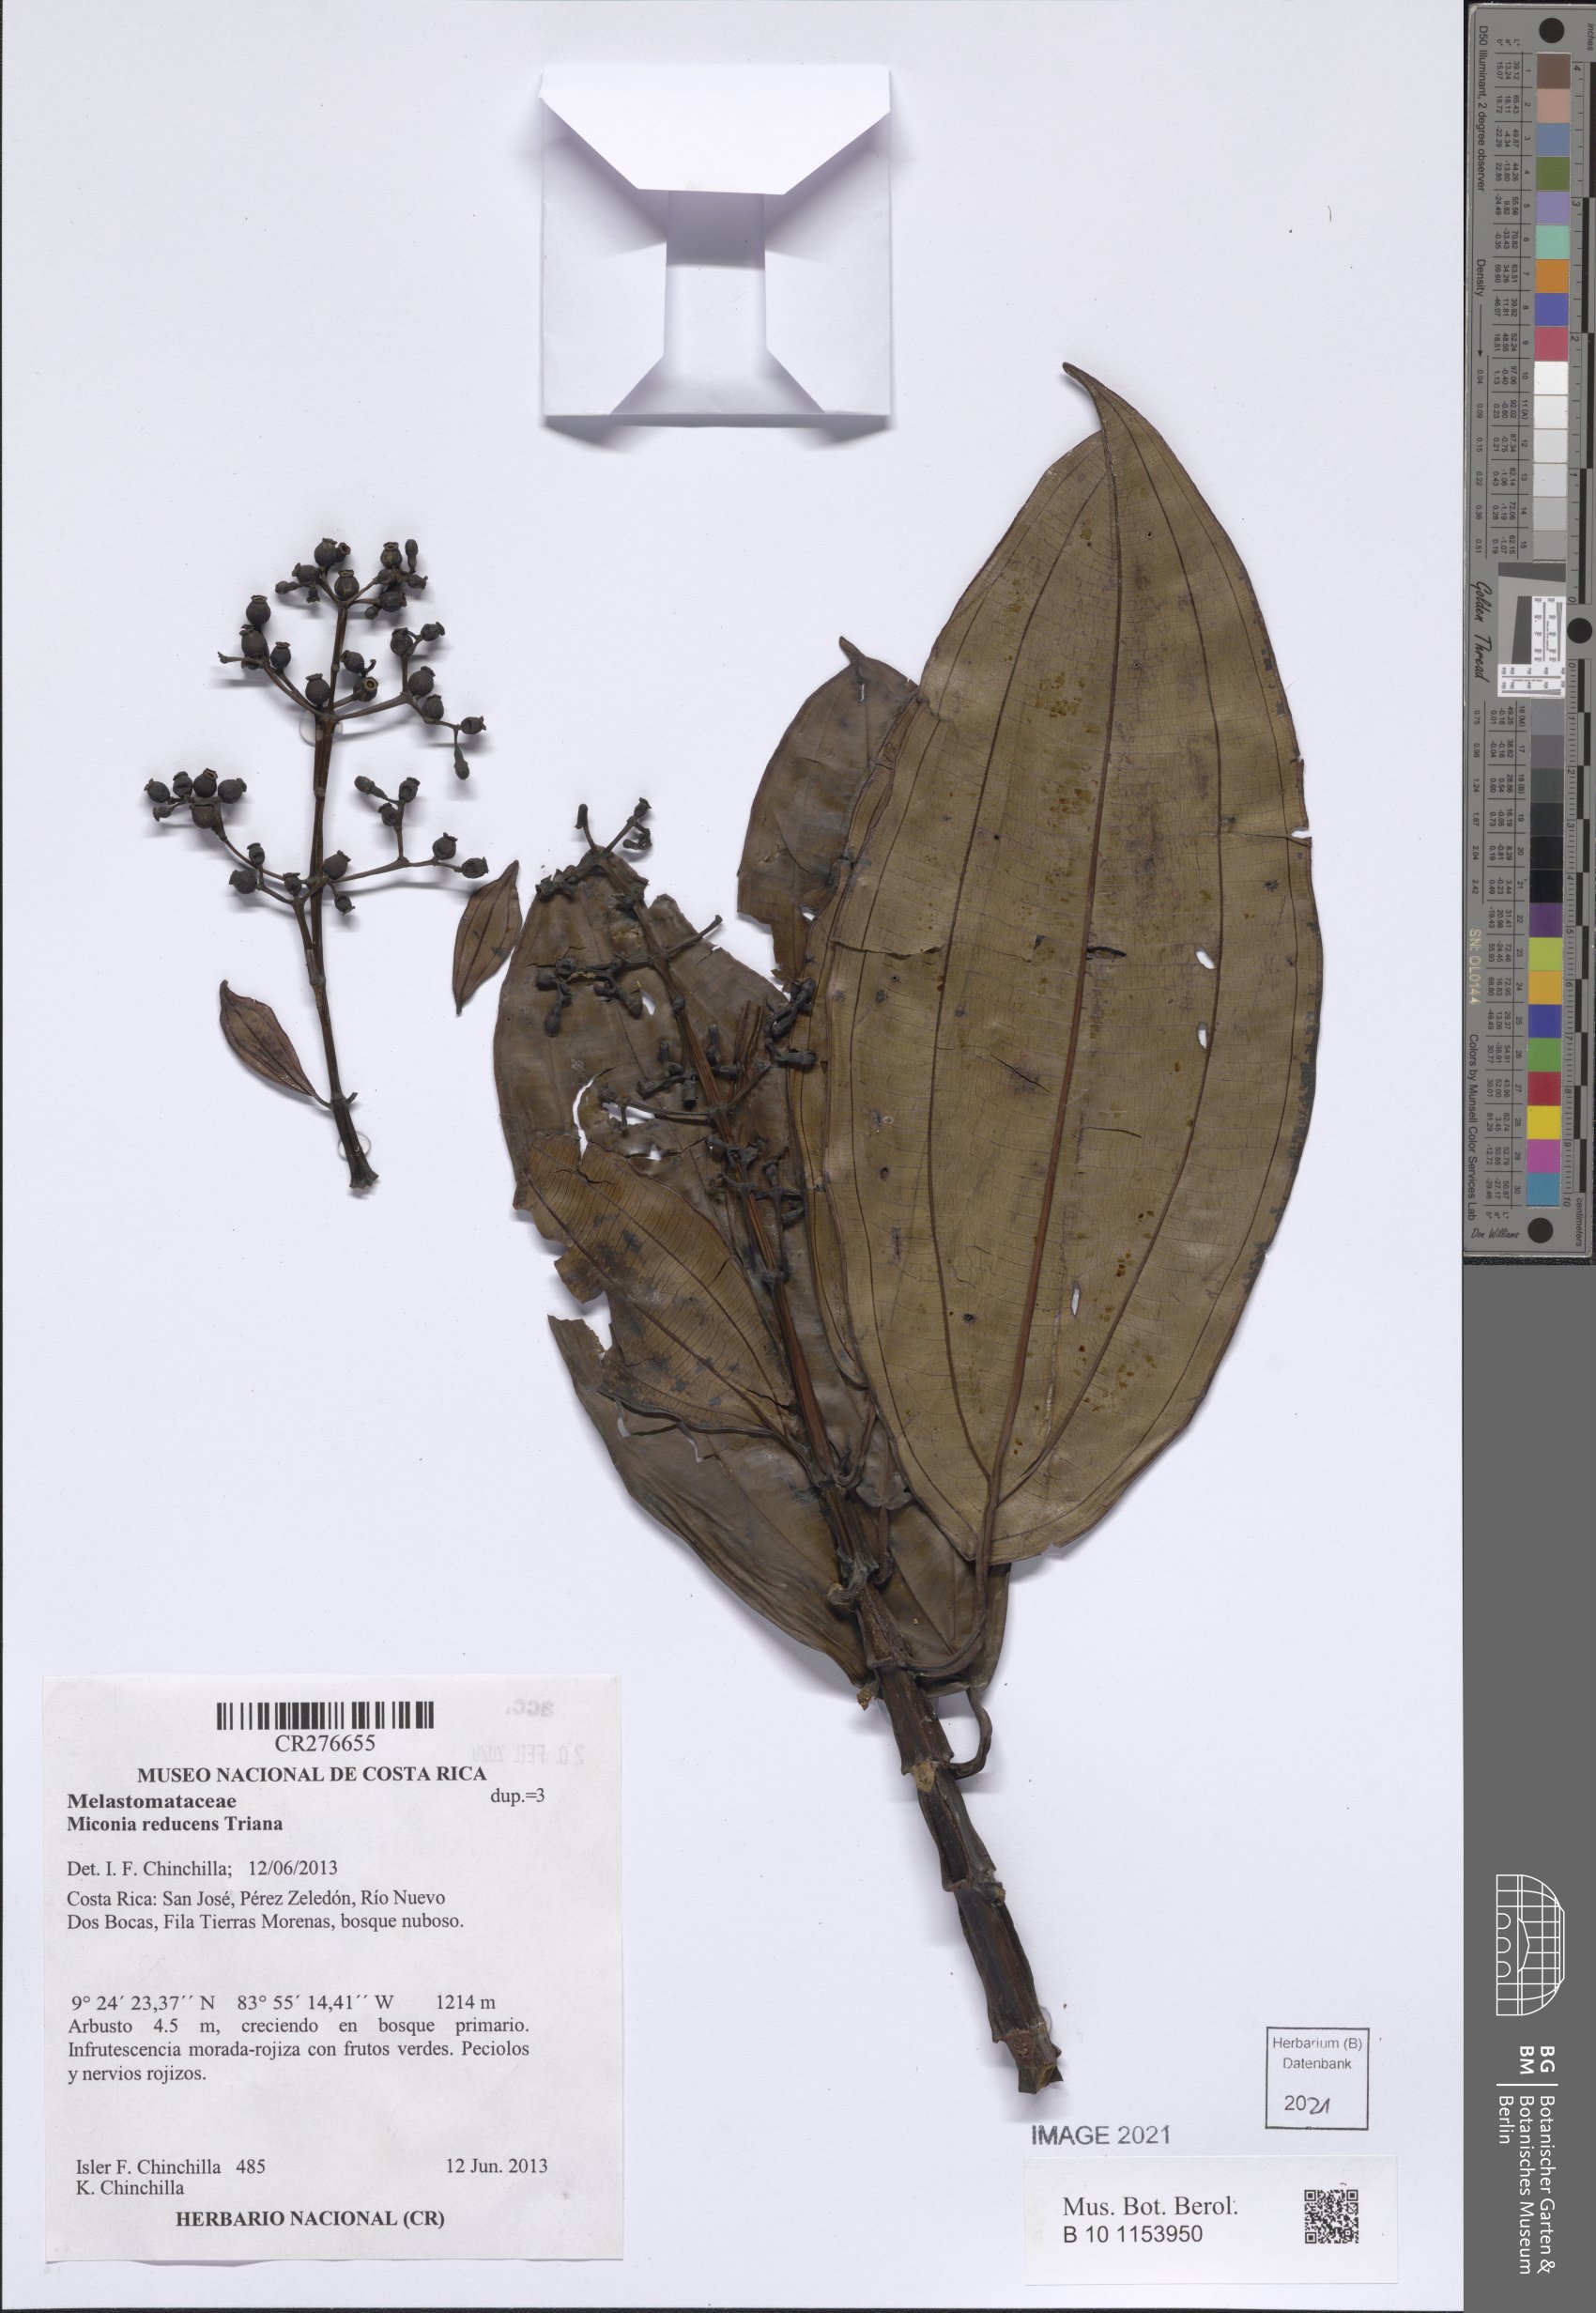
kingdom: Plantae
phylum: Tracheophyta
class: Magnoliopsida
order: Myrtales
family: Melastomataceae
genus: Miconia
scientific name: Miconia reducens
